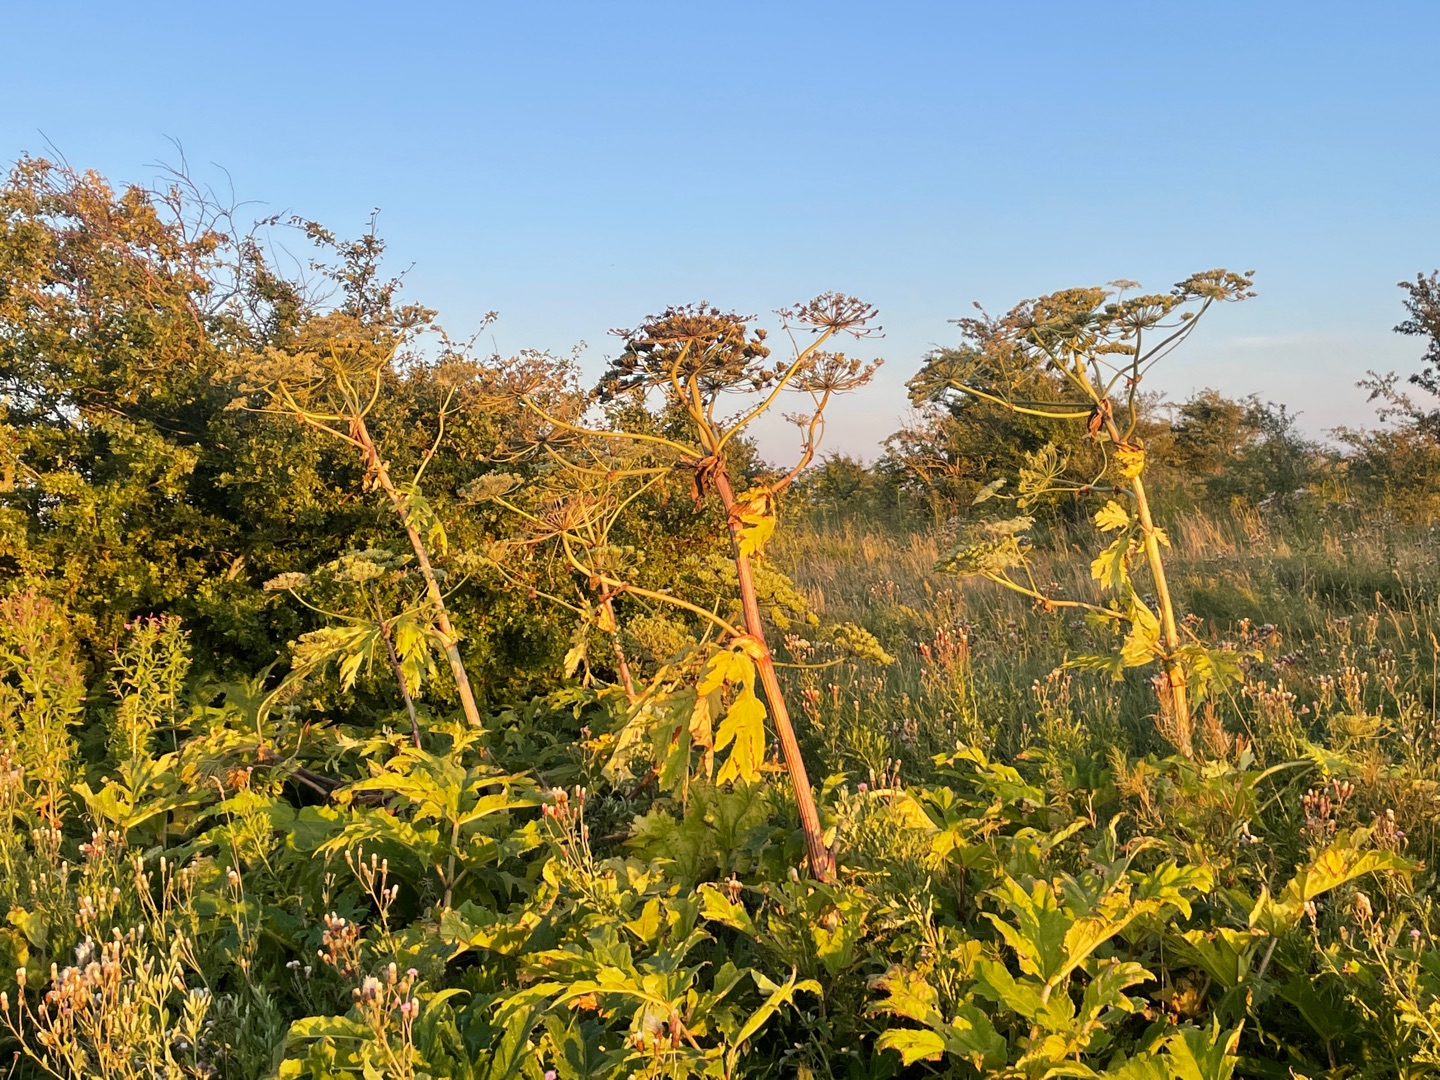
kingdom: Plantae
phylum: Tracheophyta
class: Magnoliopsida
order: Apiales
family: Apiaceae
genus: Heracleum
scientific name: Heracleum mantegazzianum
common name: Kæmpe-bjørneklo
